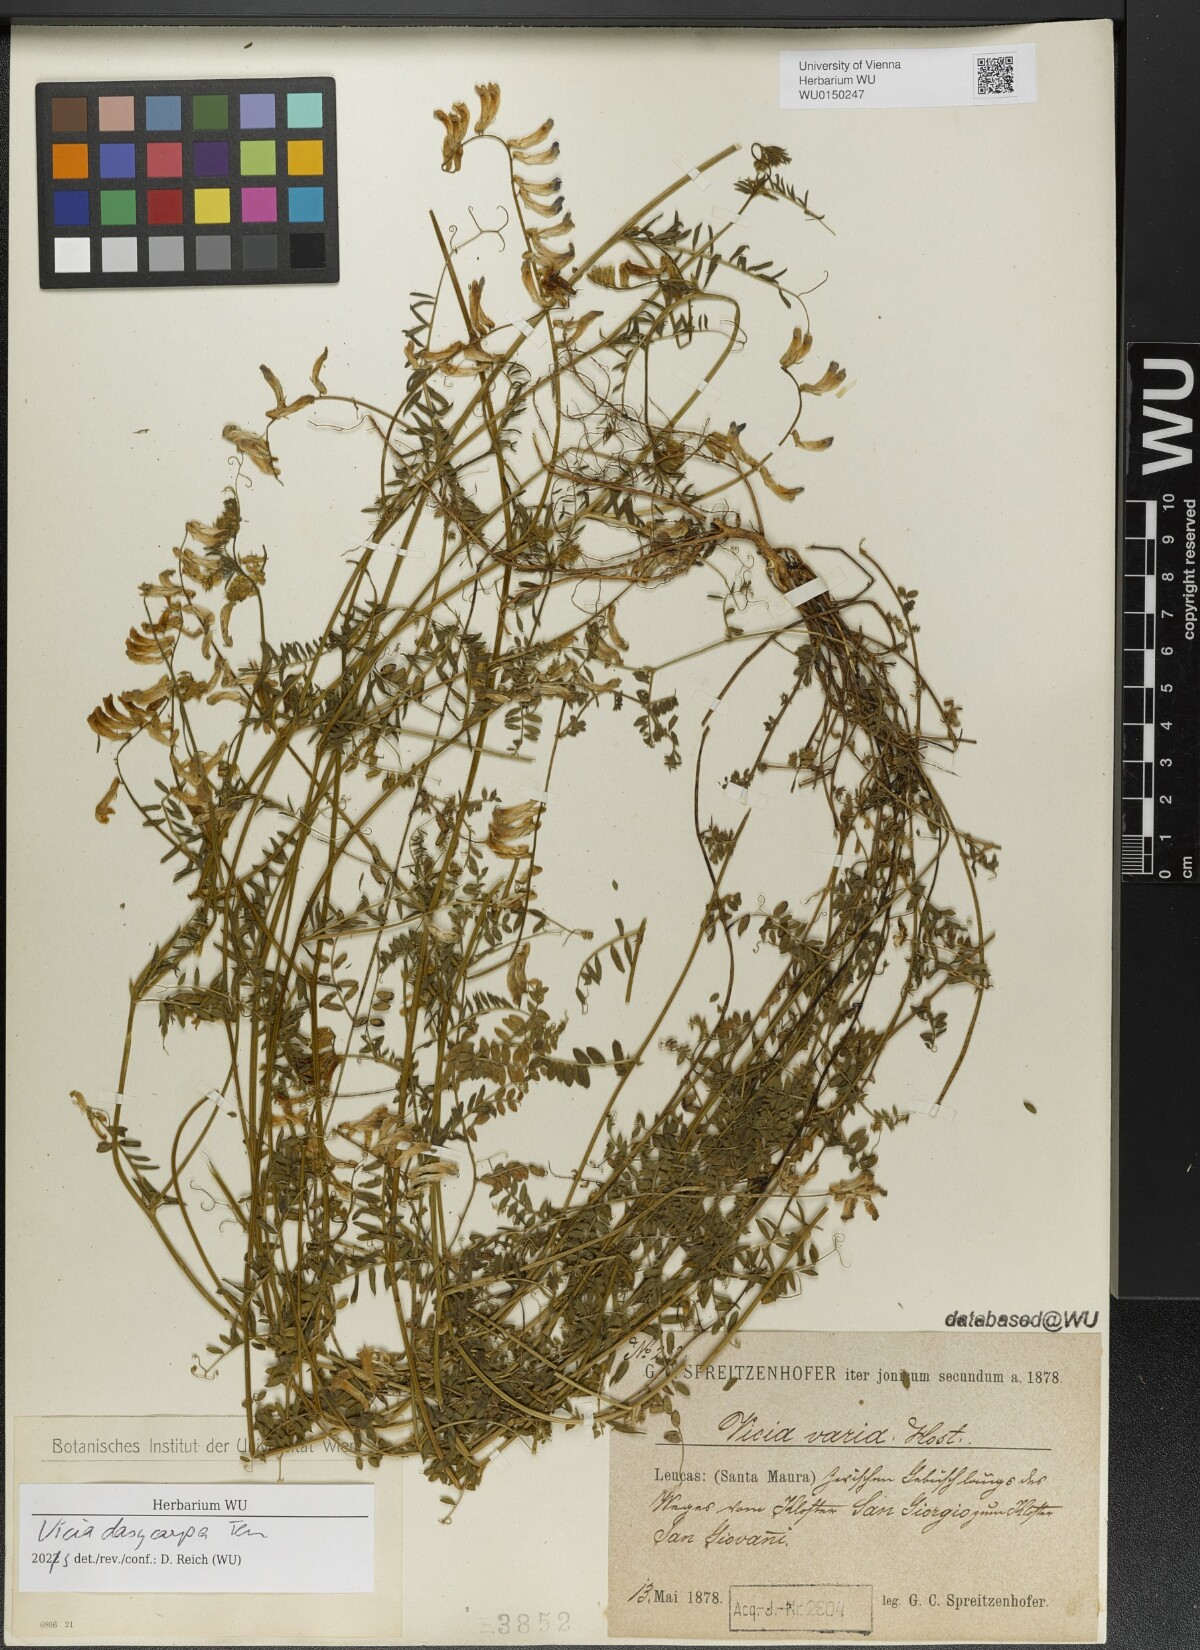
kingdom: Plantae
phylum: Tracheophyta
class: Magnoliopsida
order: Fabales
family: Fabaceae
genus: Vicia
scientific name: Vicia villosa
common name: Fodder vetch
